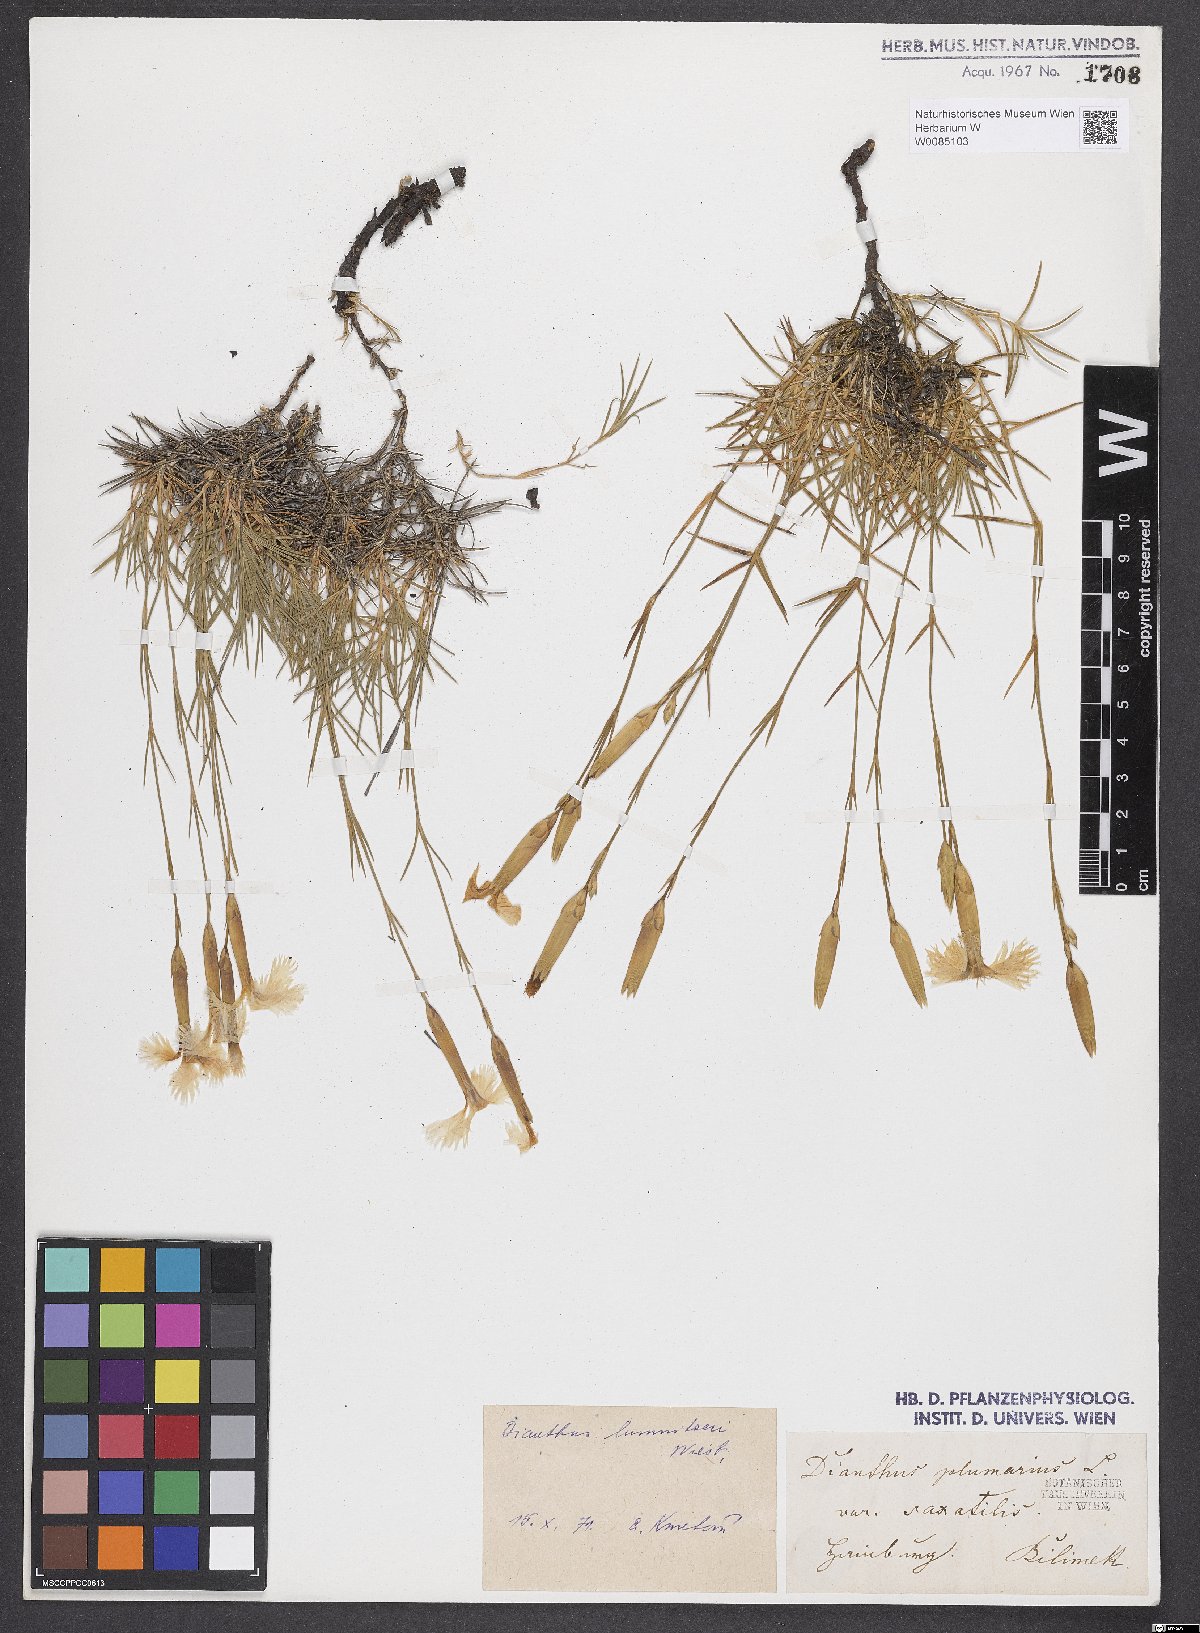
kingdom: Plantae
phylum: Tracheophyta
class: Magnoliopsida
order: Caryophyllales
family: Caryophyllaceae
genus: Dianthus
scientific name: Dianthus praecox
